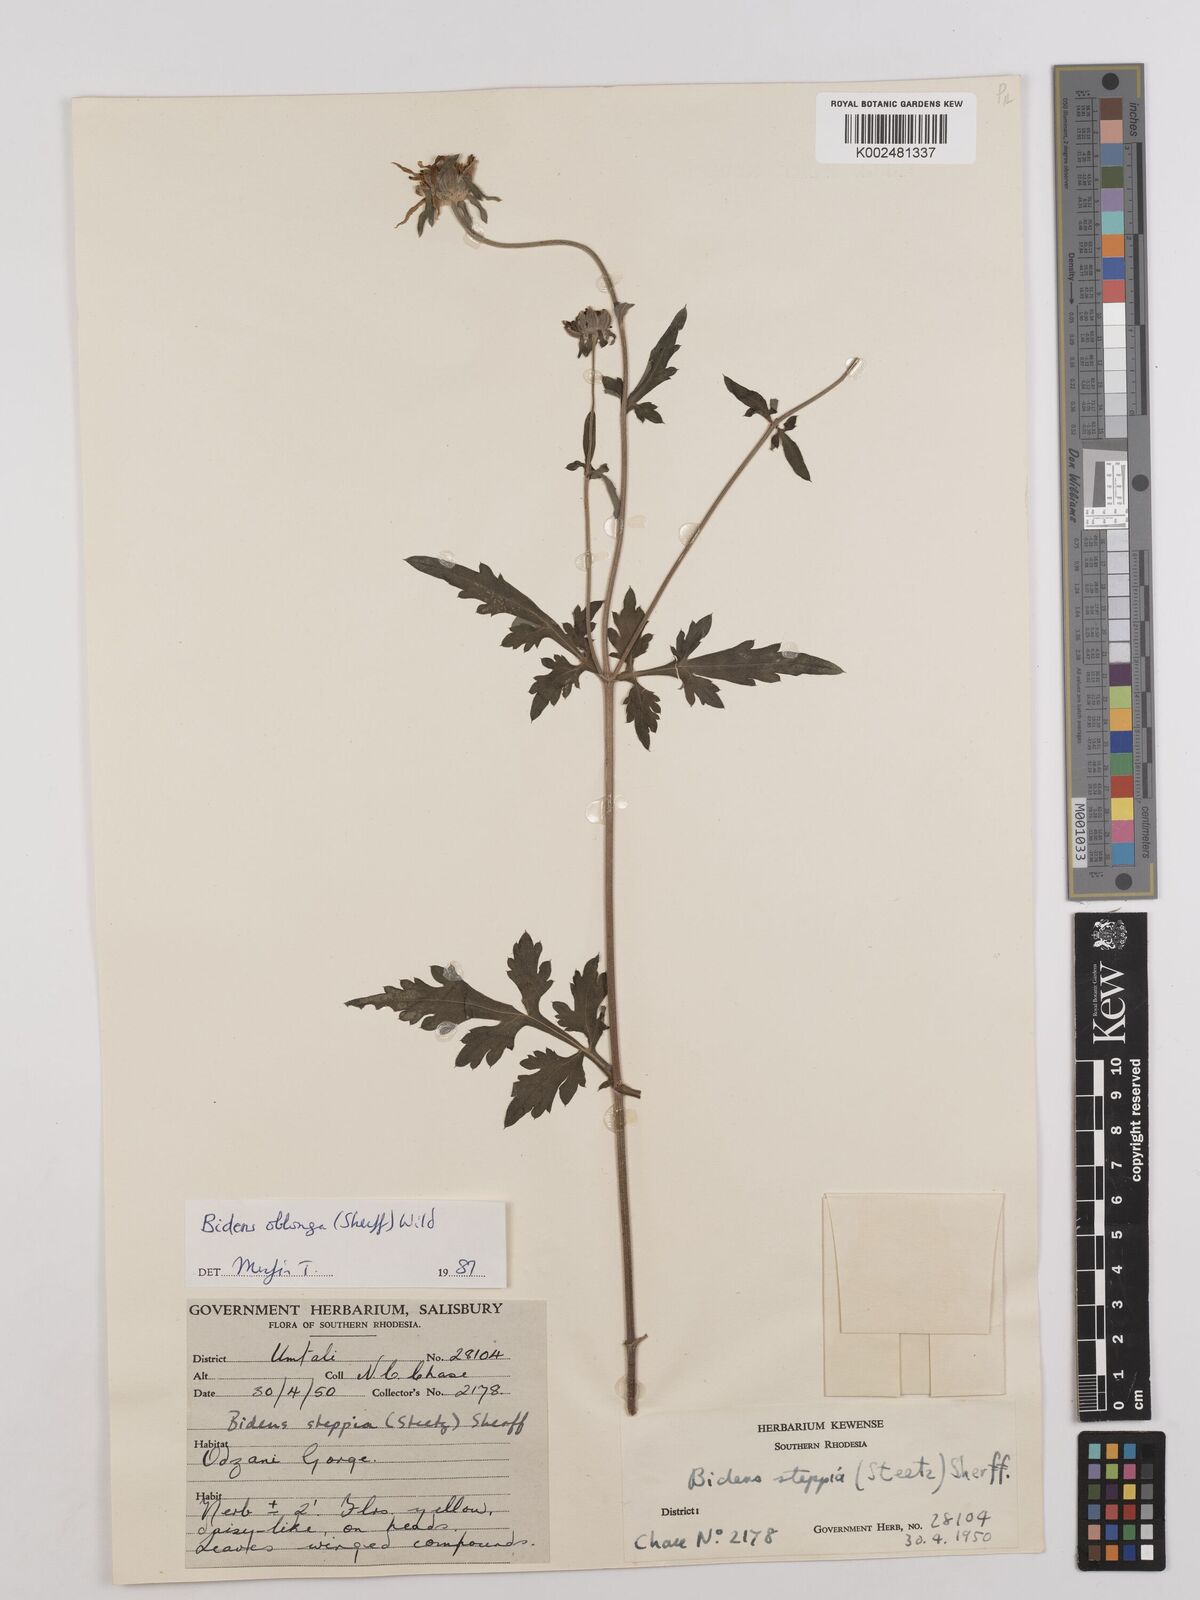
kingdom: Plantae
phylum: Tracheophyta
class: Magnoliopsida
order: Asterales
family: Asteraceae
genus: Bidens
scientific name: Bidens oblonga
